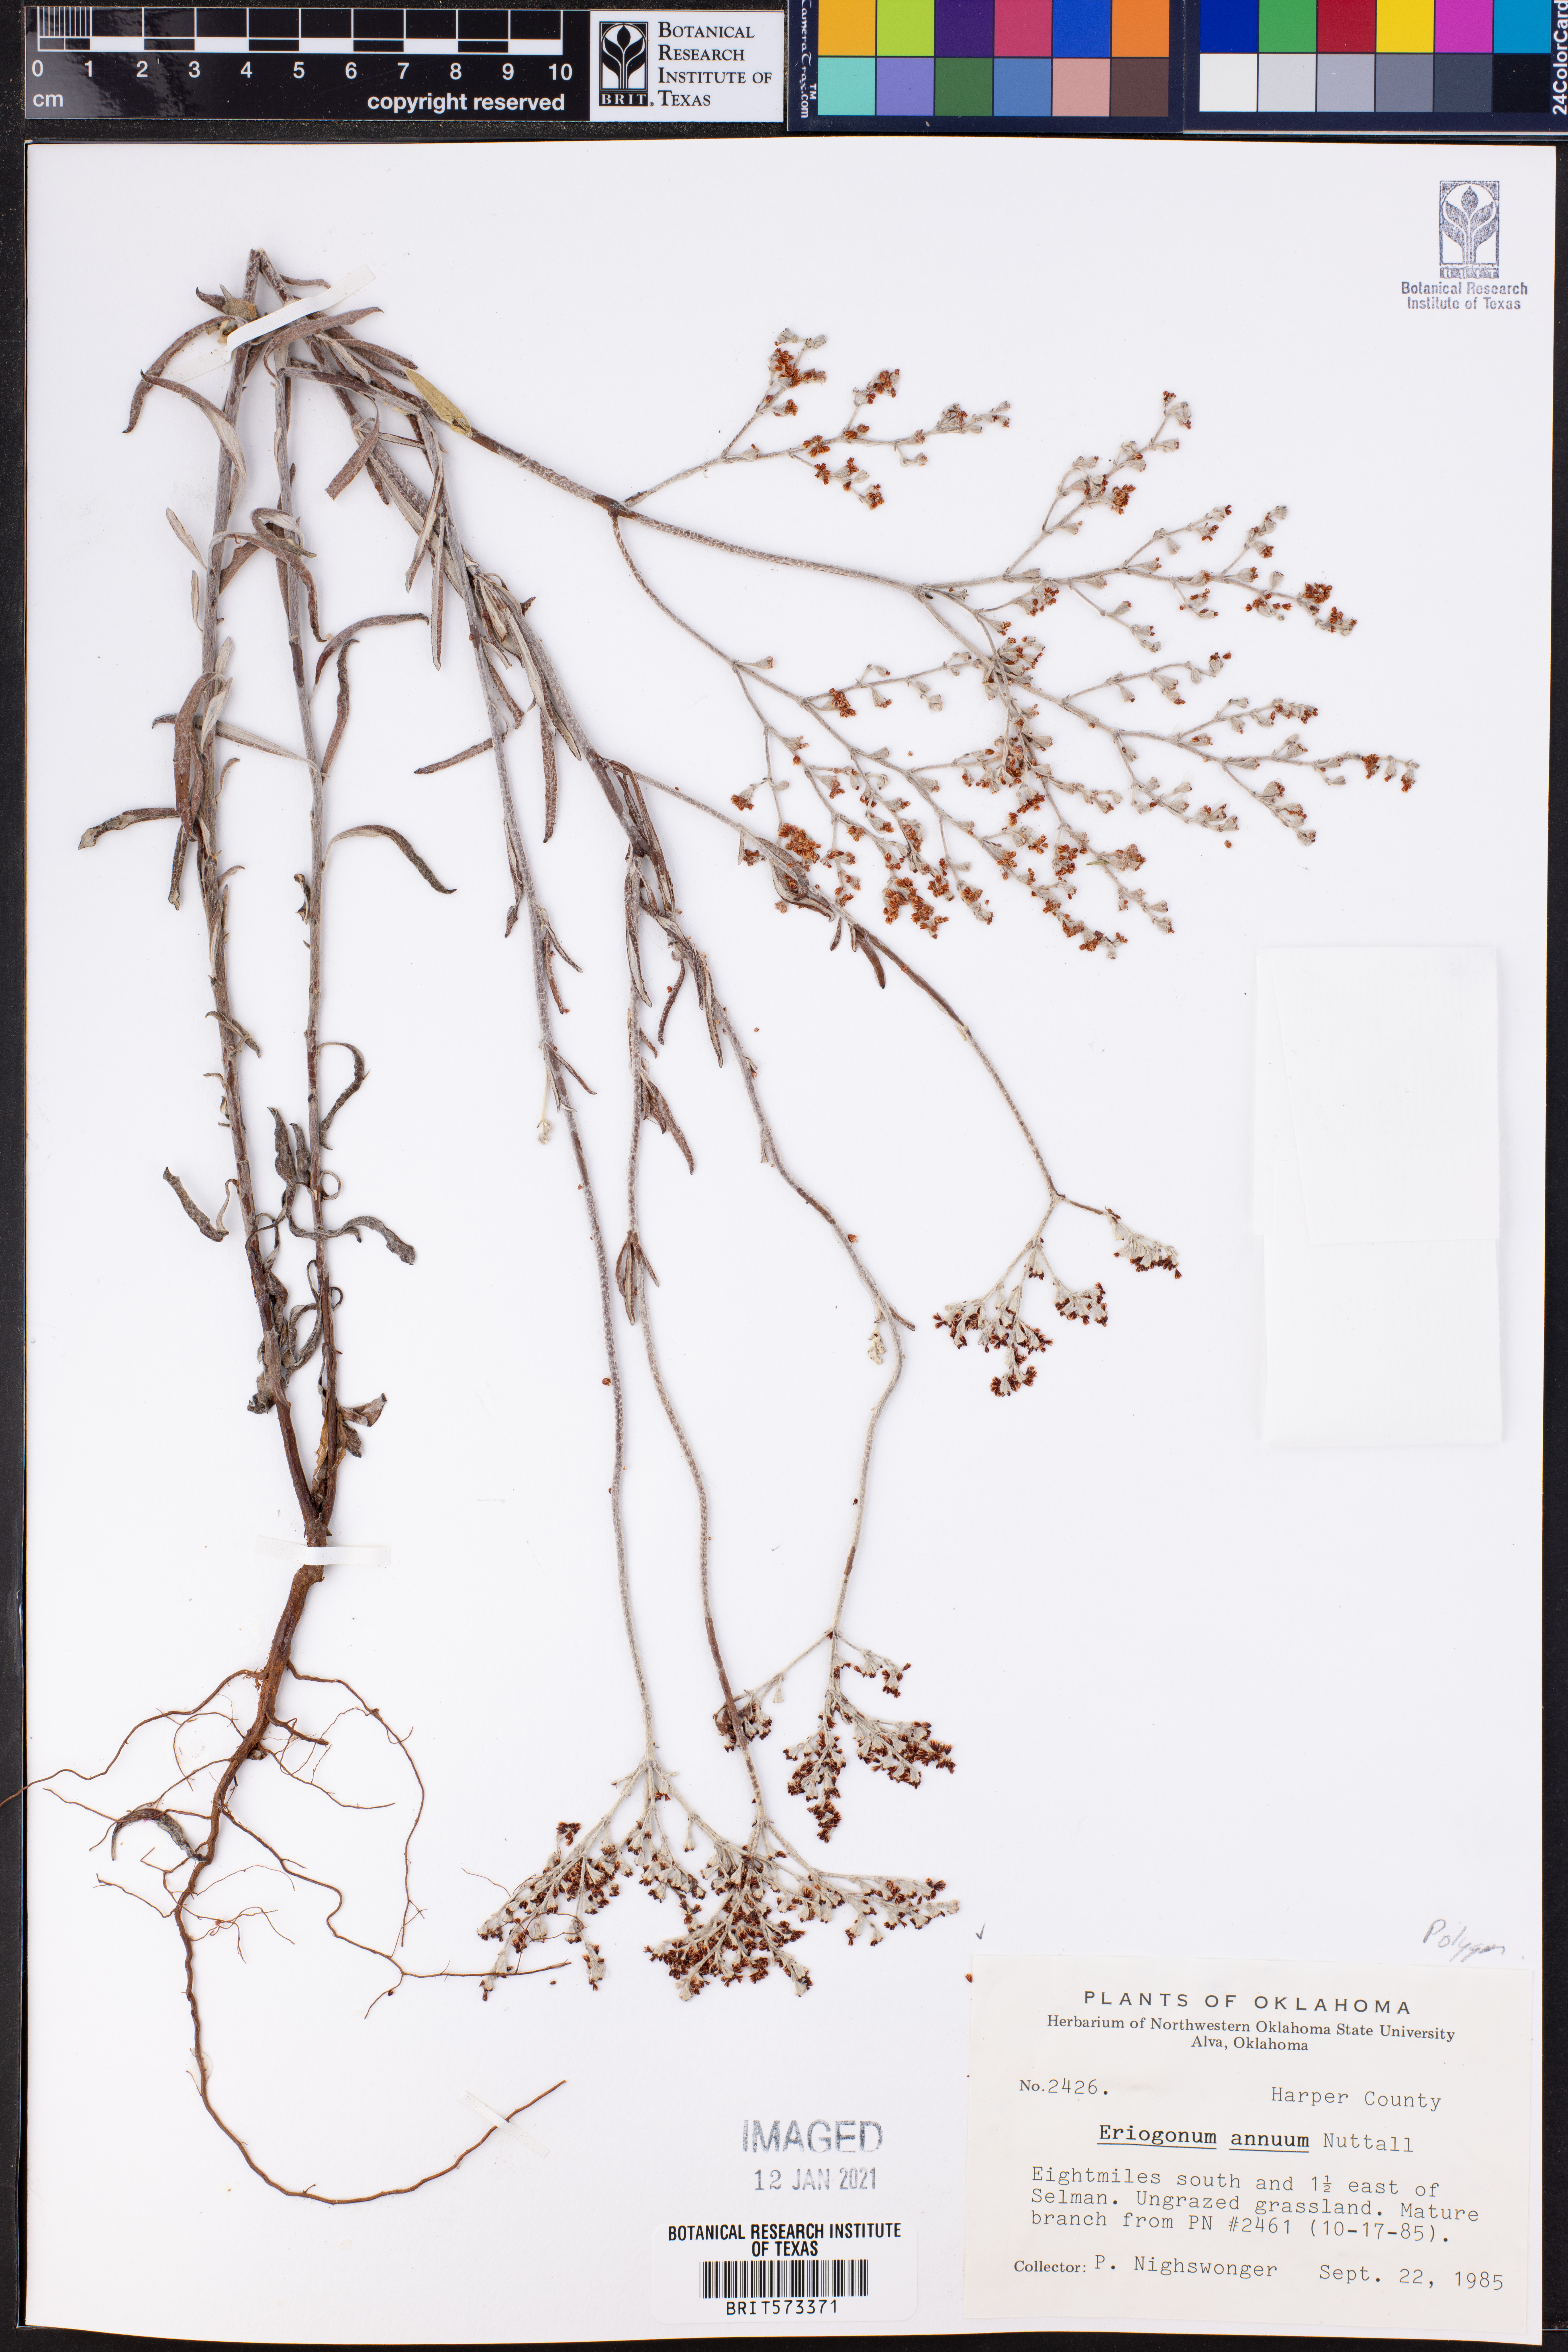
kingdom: Plantae
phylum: Tracheophyta
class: Magnoliopsida
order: Caryophyllales
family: Polygonaceae
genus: Eriogonum
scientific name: Eriogonum annuum
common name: Annual wild buckwheat
